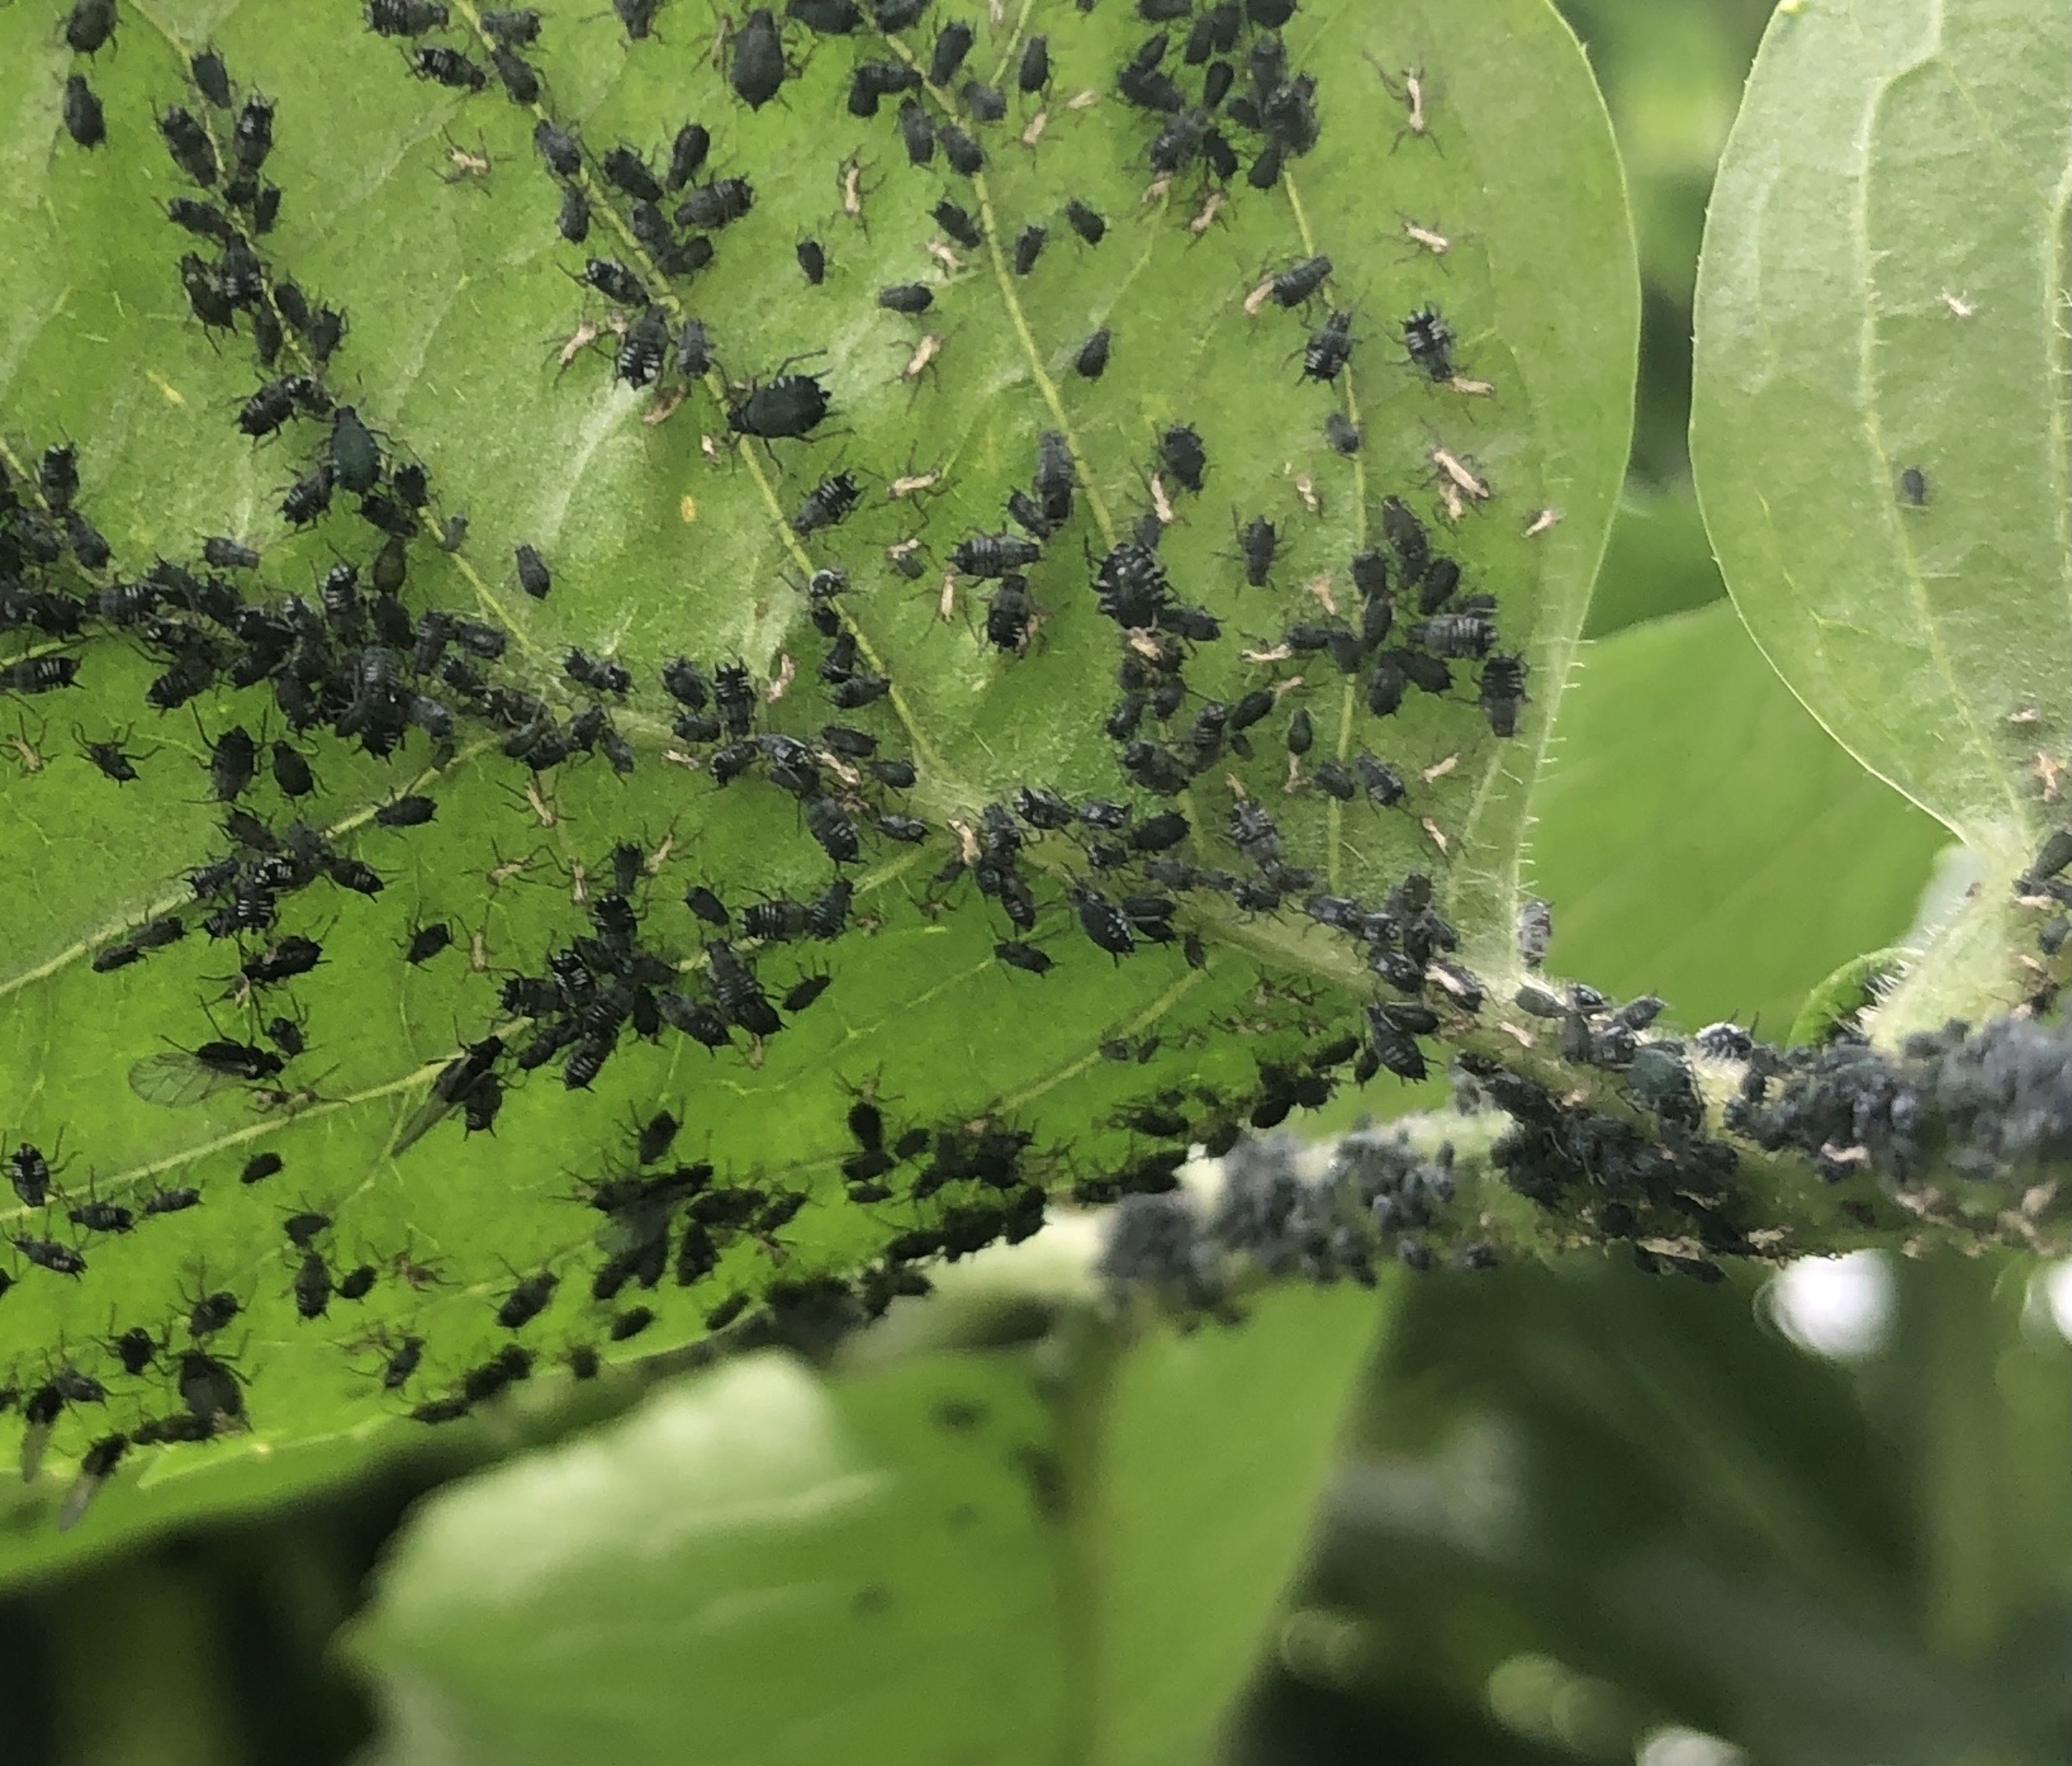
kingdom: Animalia
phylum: Arthropoda
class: Insecta
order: Hemiptera
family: Aphididae
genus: Aphis
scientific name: Aphis sambuci
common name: Hyldebladlus
